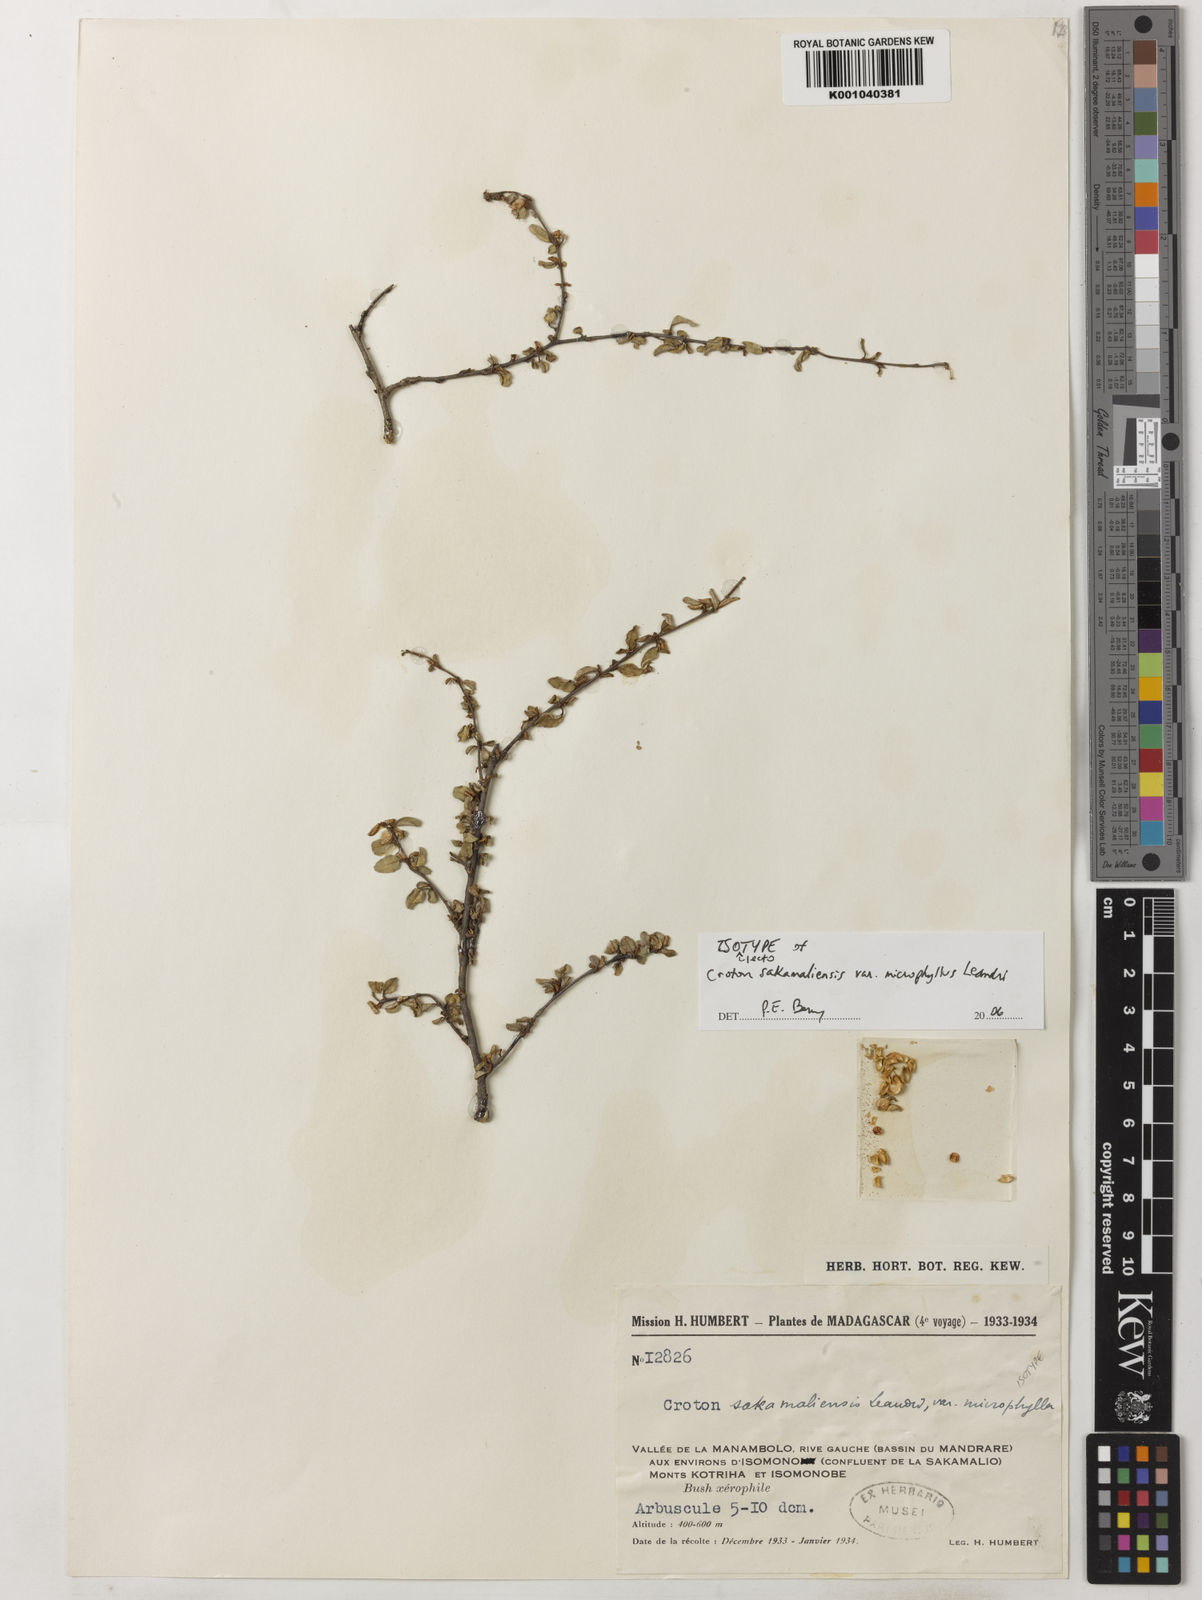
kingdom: Plantae
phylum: Tracheophyta
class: Magnoliopsida
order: Malpighiales
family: Euphorbiaceae
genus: Croton
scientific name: Croton sakamaliensis
